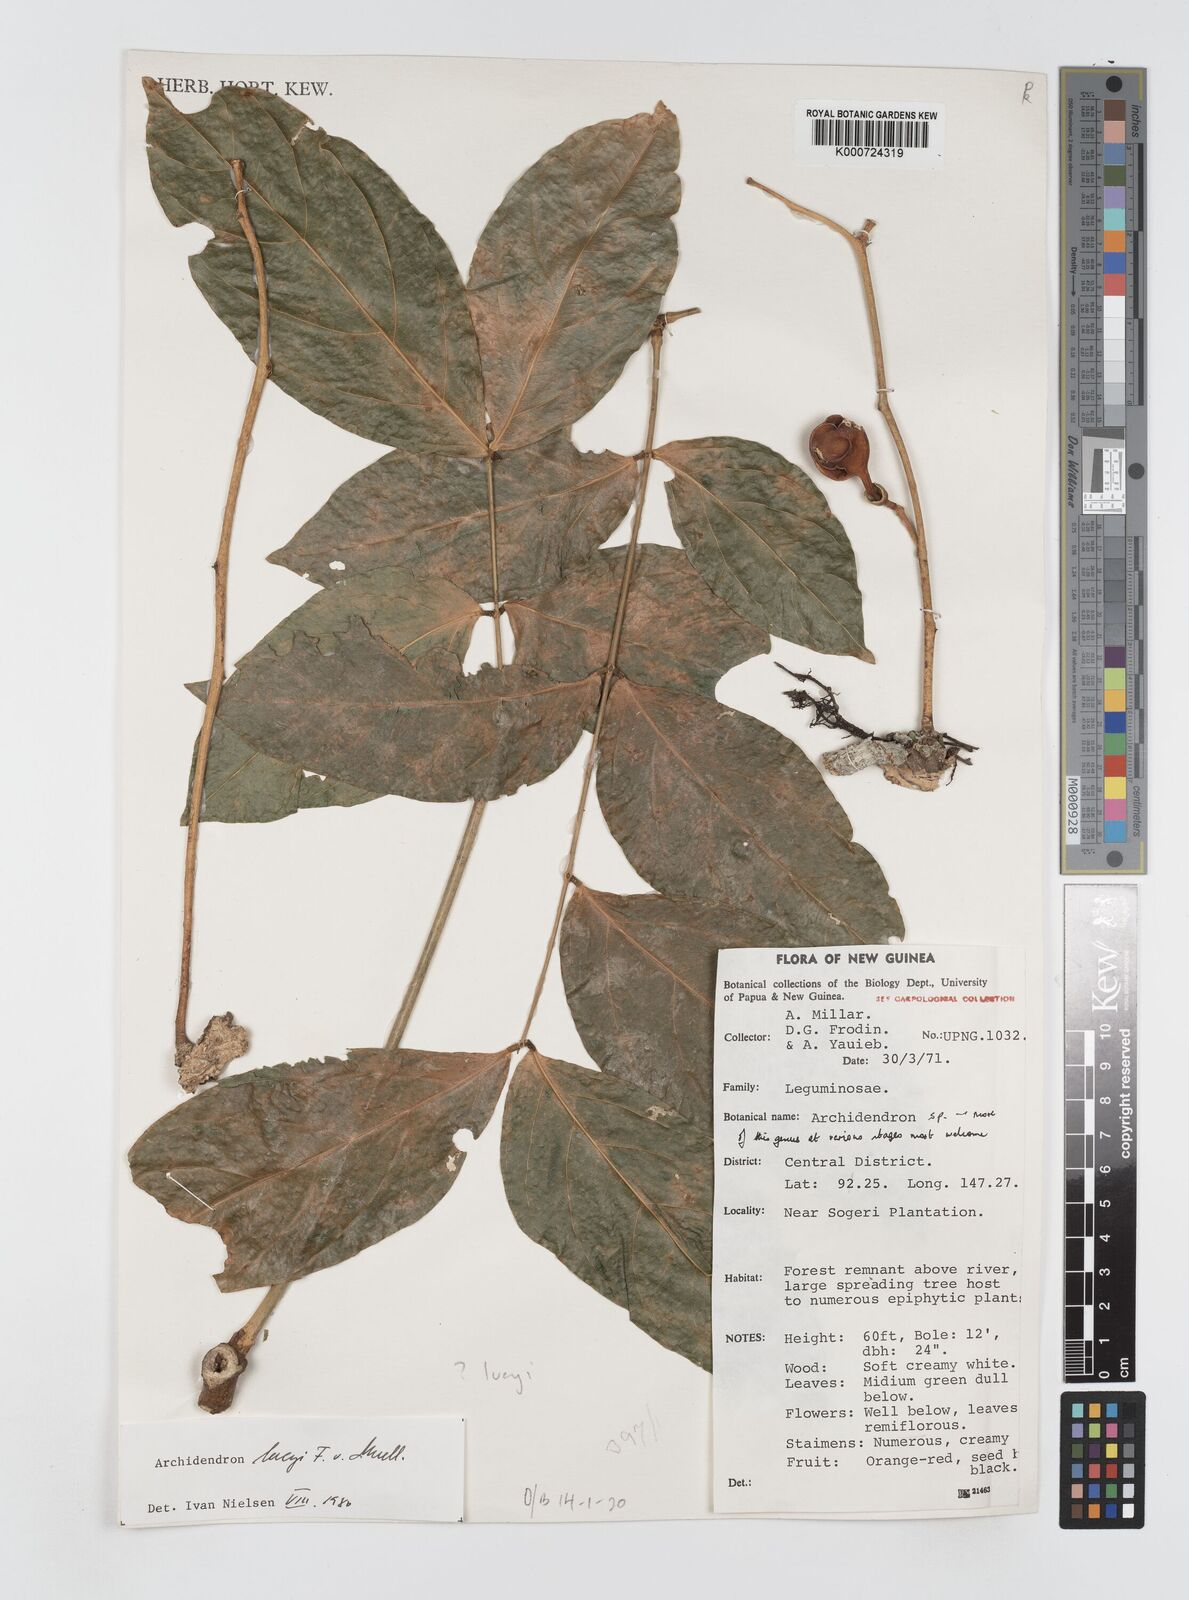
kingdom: Plantae
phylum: Tracheophyta
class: Magnoliopsida
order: Fabales
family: Fabaceae
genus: Archidendron
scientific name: Archidendron lucyi
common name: Scarlet bean
